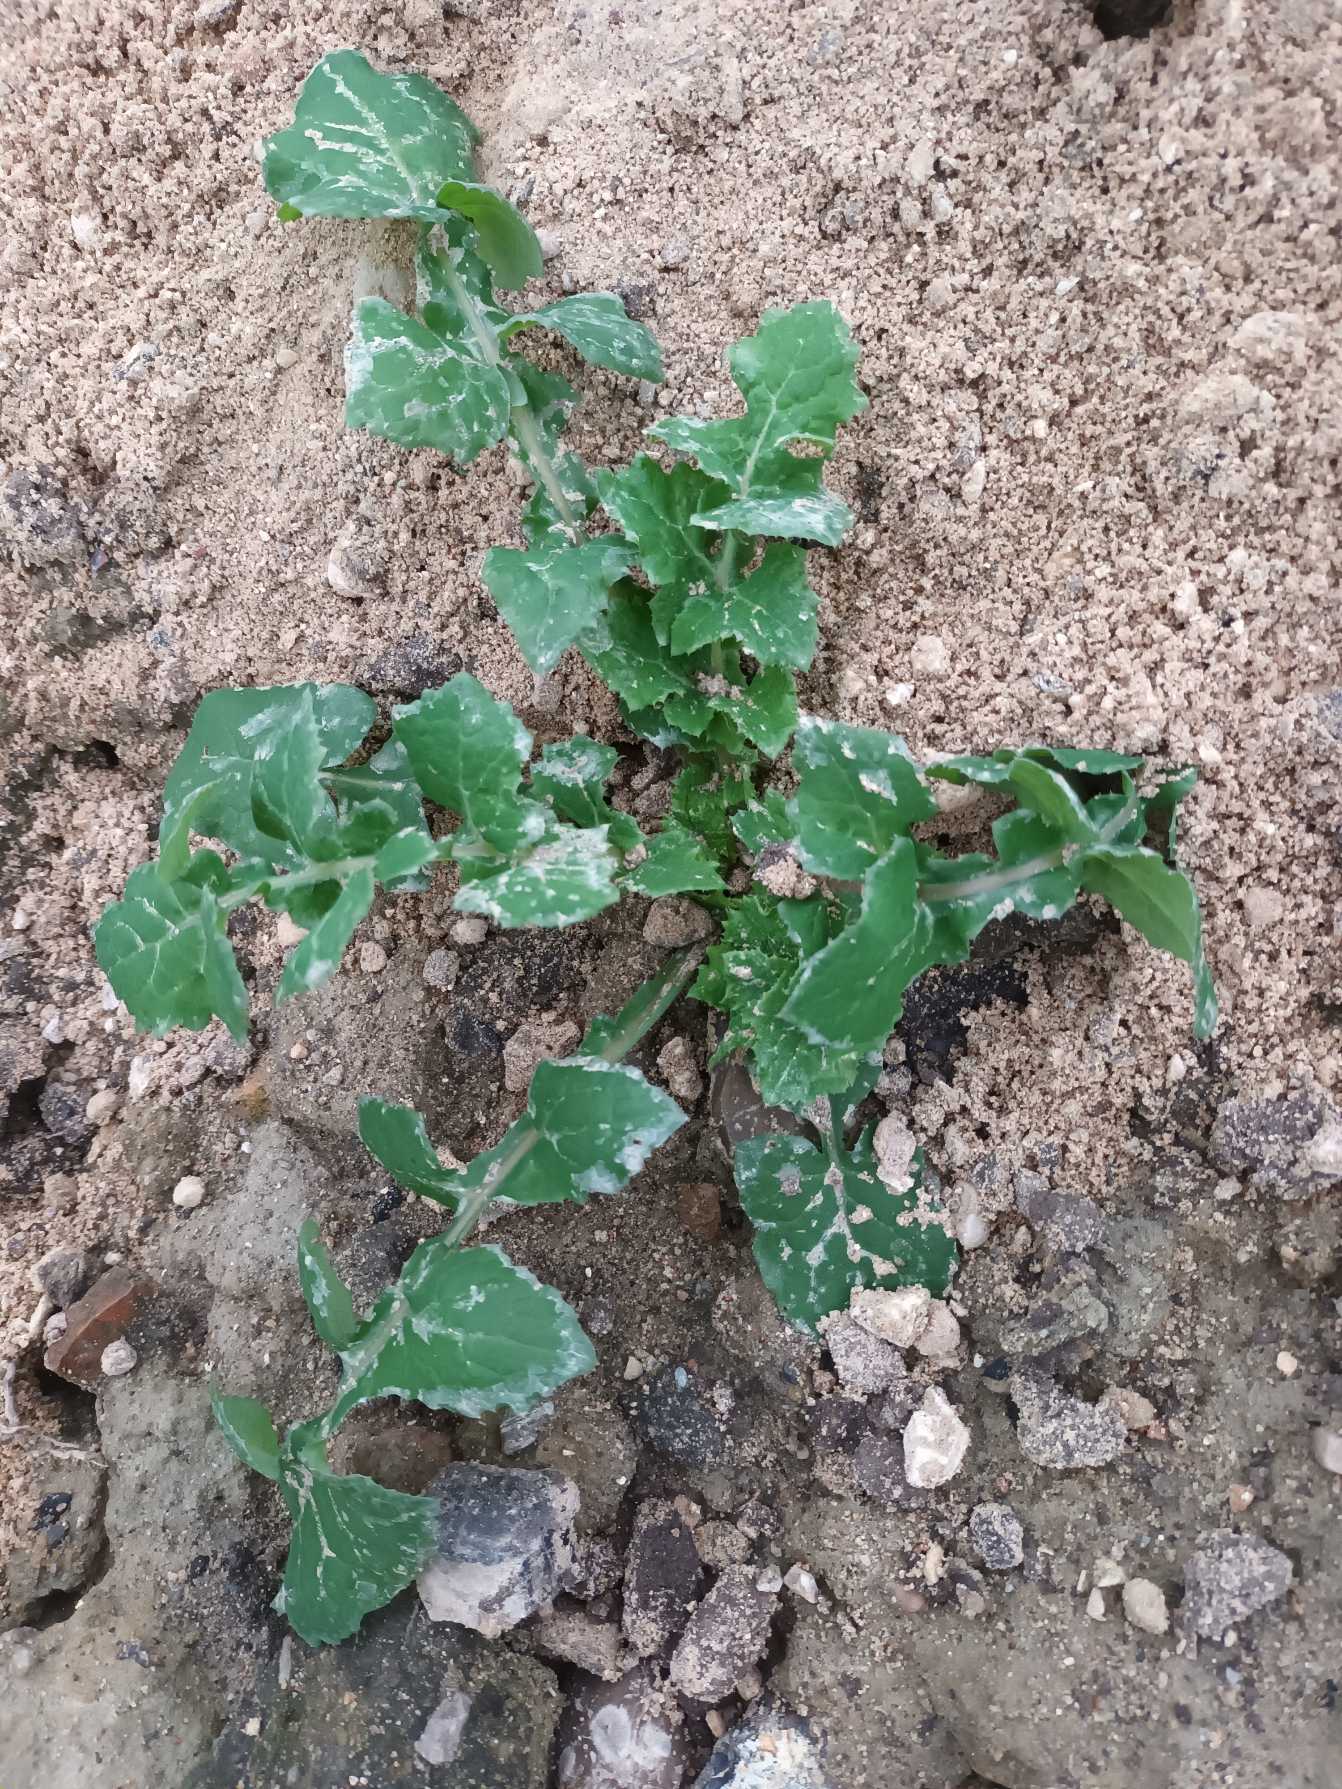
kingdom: Plantae
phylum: Tracheophyta
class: Magnoliopsida
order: Asterales
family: Asteraceae
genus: Sonchus
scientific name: Sonchus oleraceus
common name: Almindelig svinemælk
